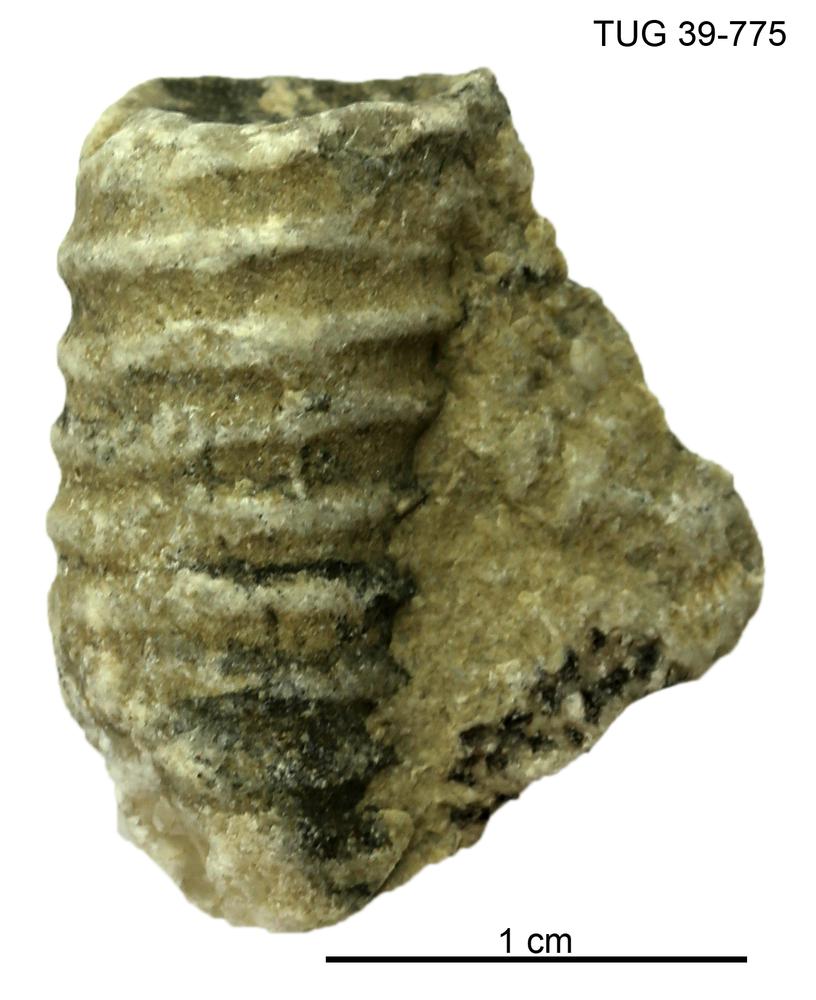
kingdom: Animalia
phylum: Mollusca
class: Cephalopoda
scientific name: Cephalopoda
